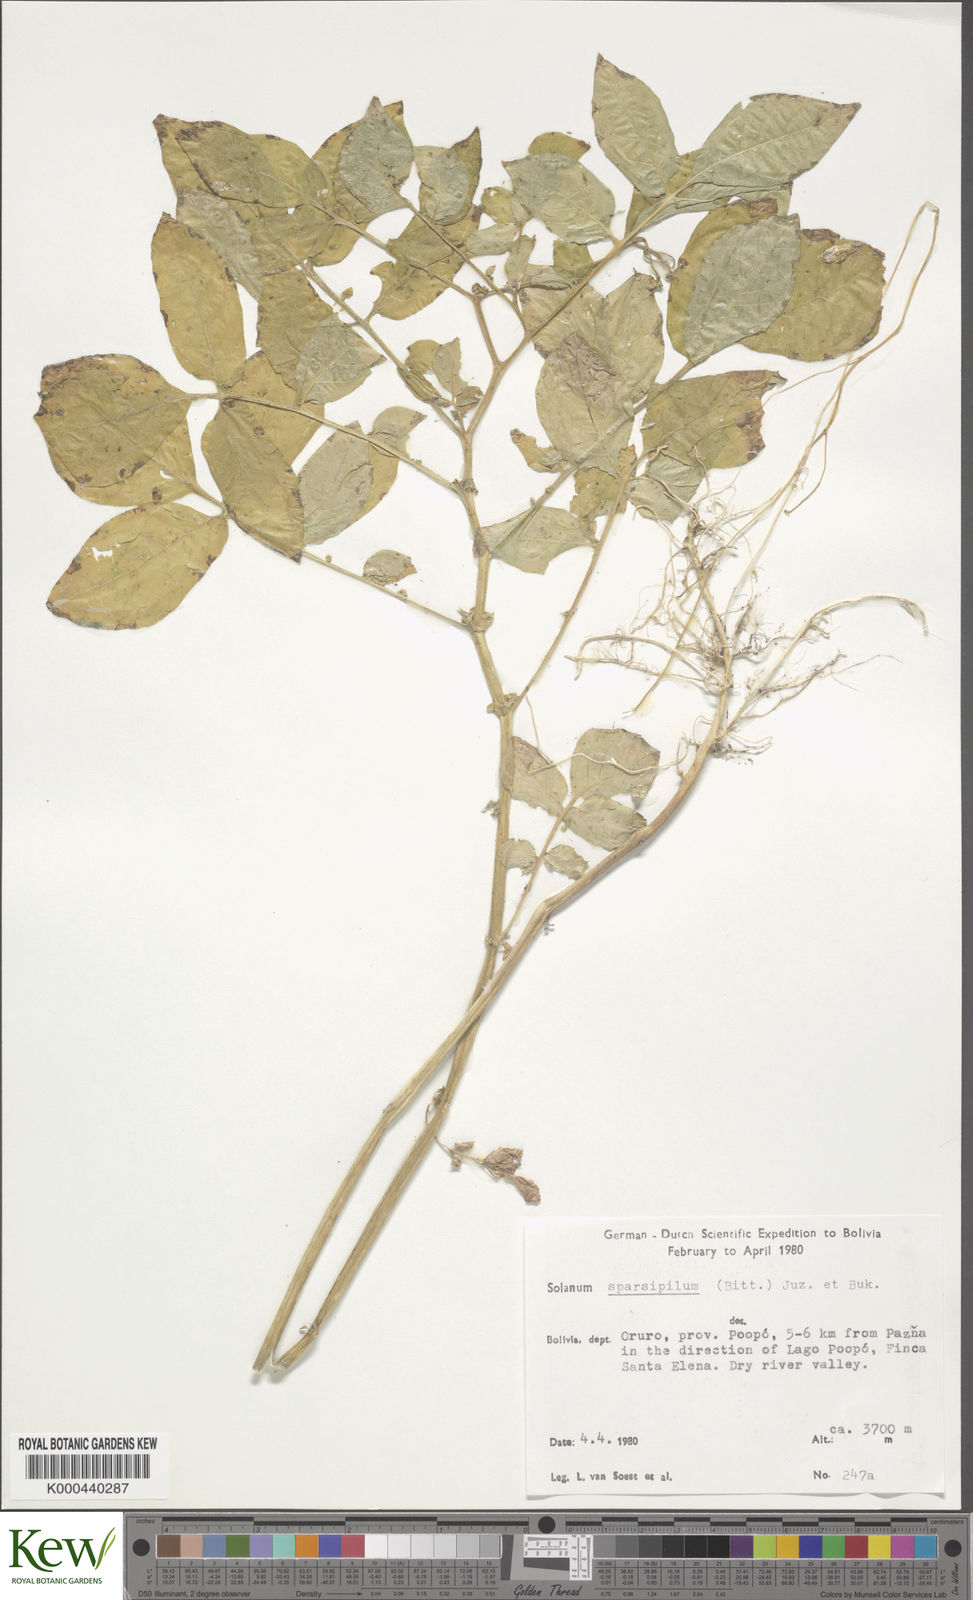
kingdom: Plantae
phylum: Tracheophyta
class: Magnoliopsida
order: Solanales
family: Solanaceae
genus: Solanum
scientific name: Solanum brevicaule
